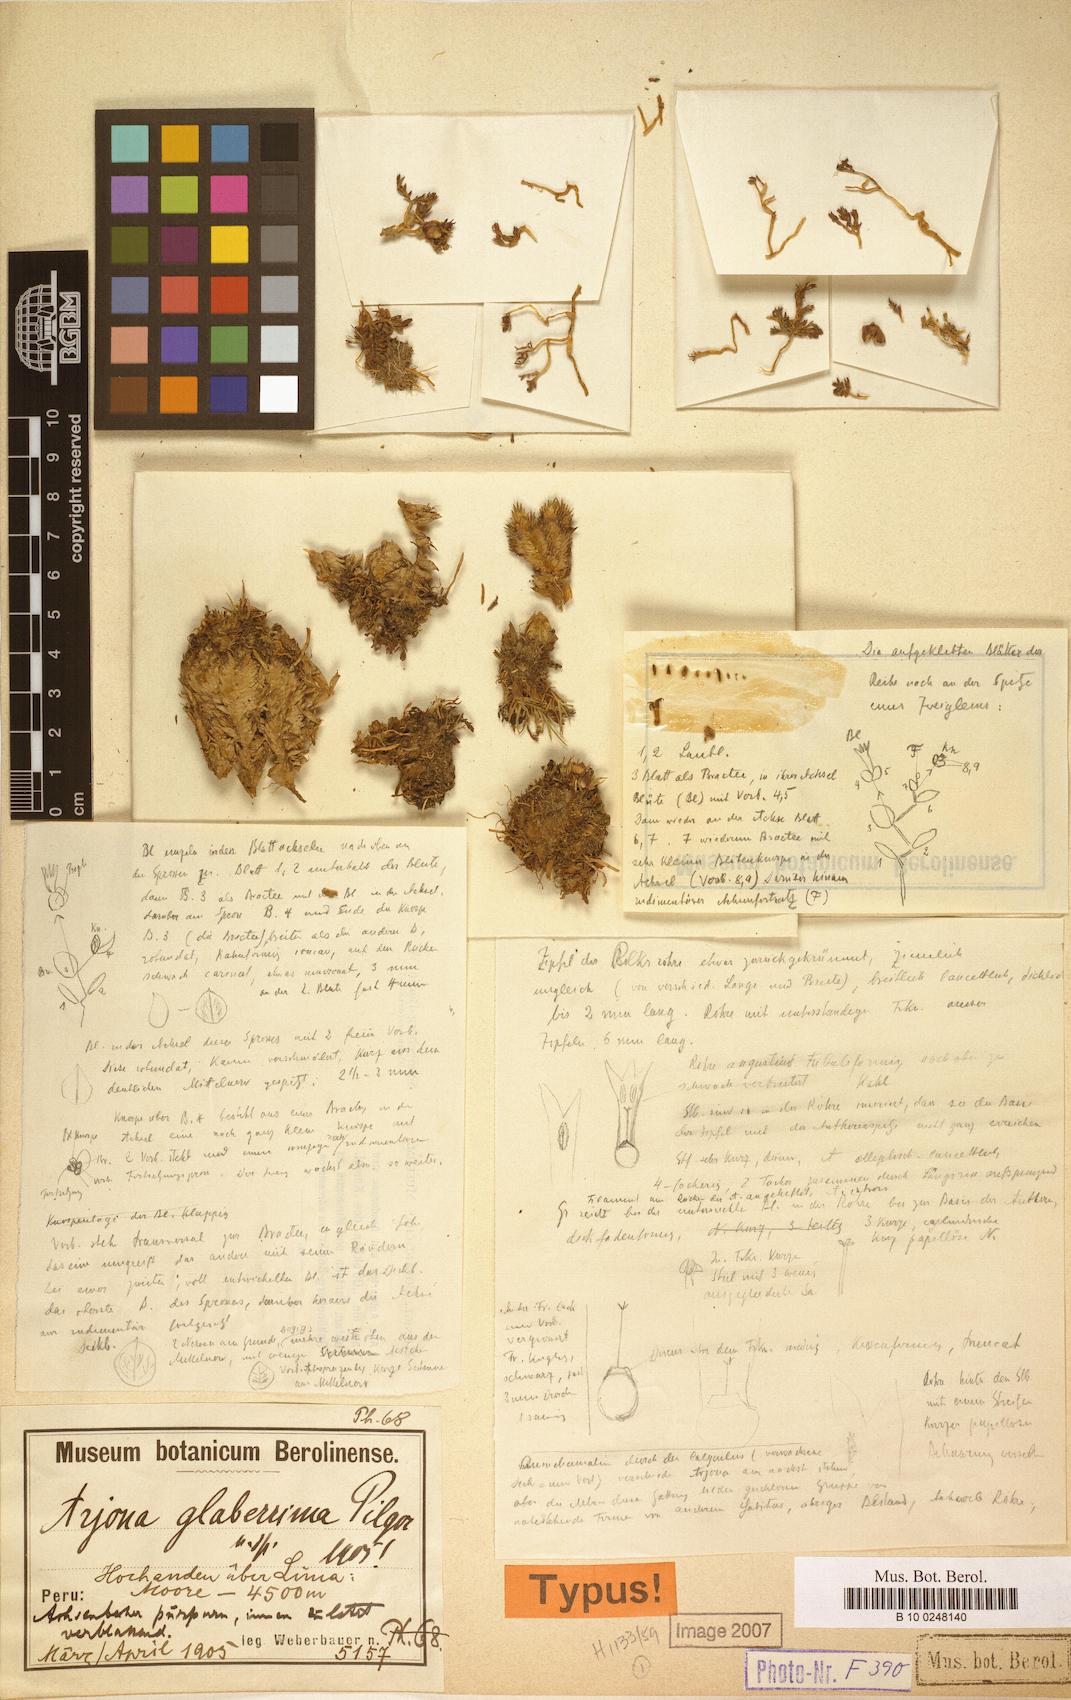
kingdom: Plantae
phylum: Tracheophyta
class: Magnoliopsida
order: Santalales
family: Schoepfiaceae
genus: Arjona
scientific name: Arjona pusilla
